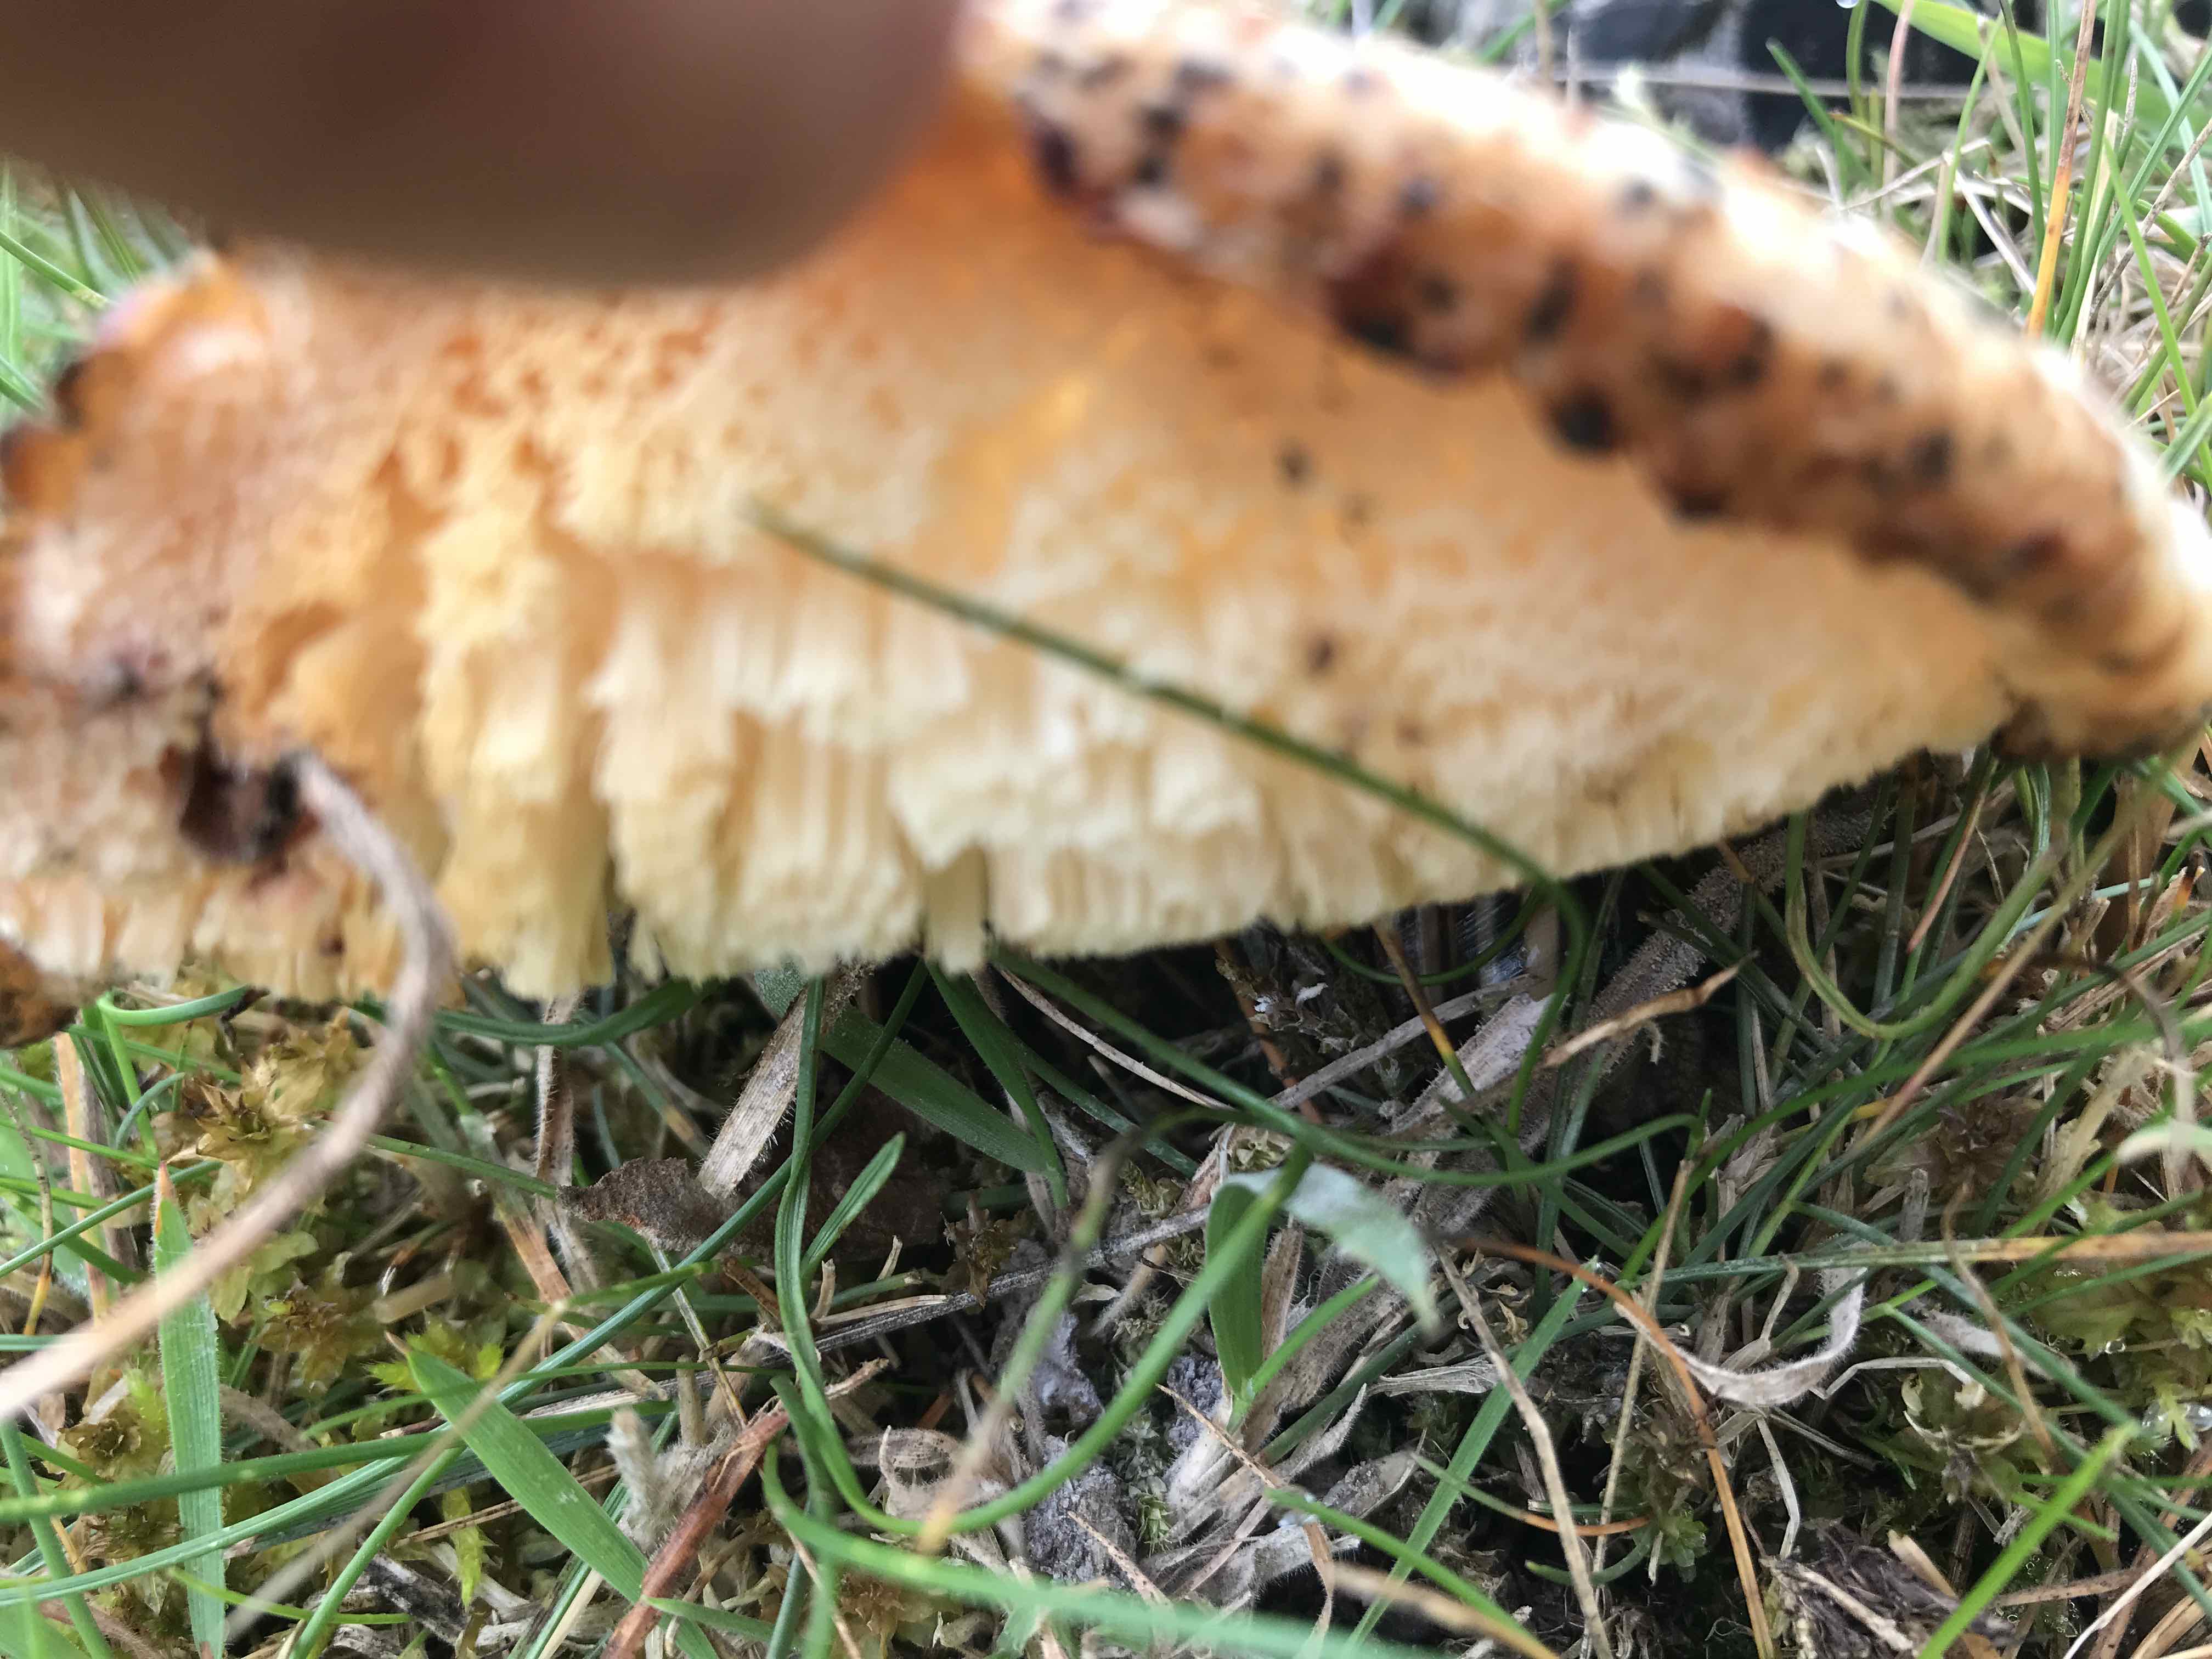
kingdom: Fungi
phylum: Basidiomycota
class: Agaricomycetes
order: Polyporales
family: Polyporaceae
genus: Polyporus
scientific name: Polyporus tuberaster
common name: knoldet stilkporesvamp
